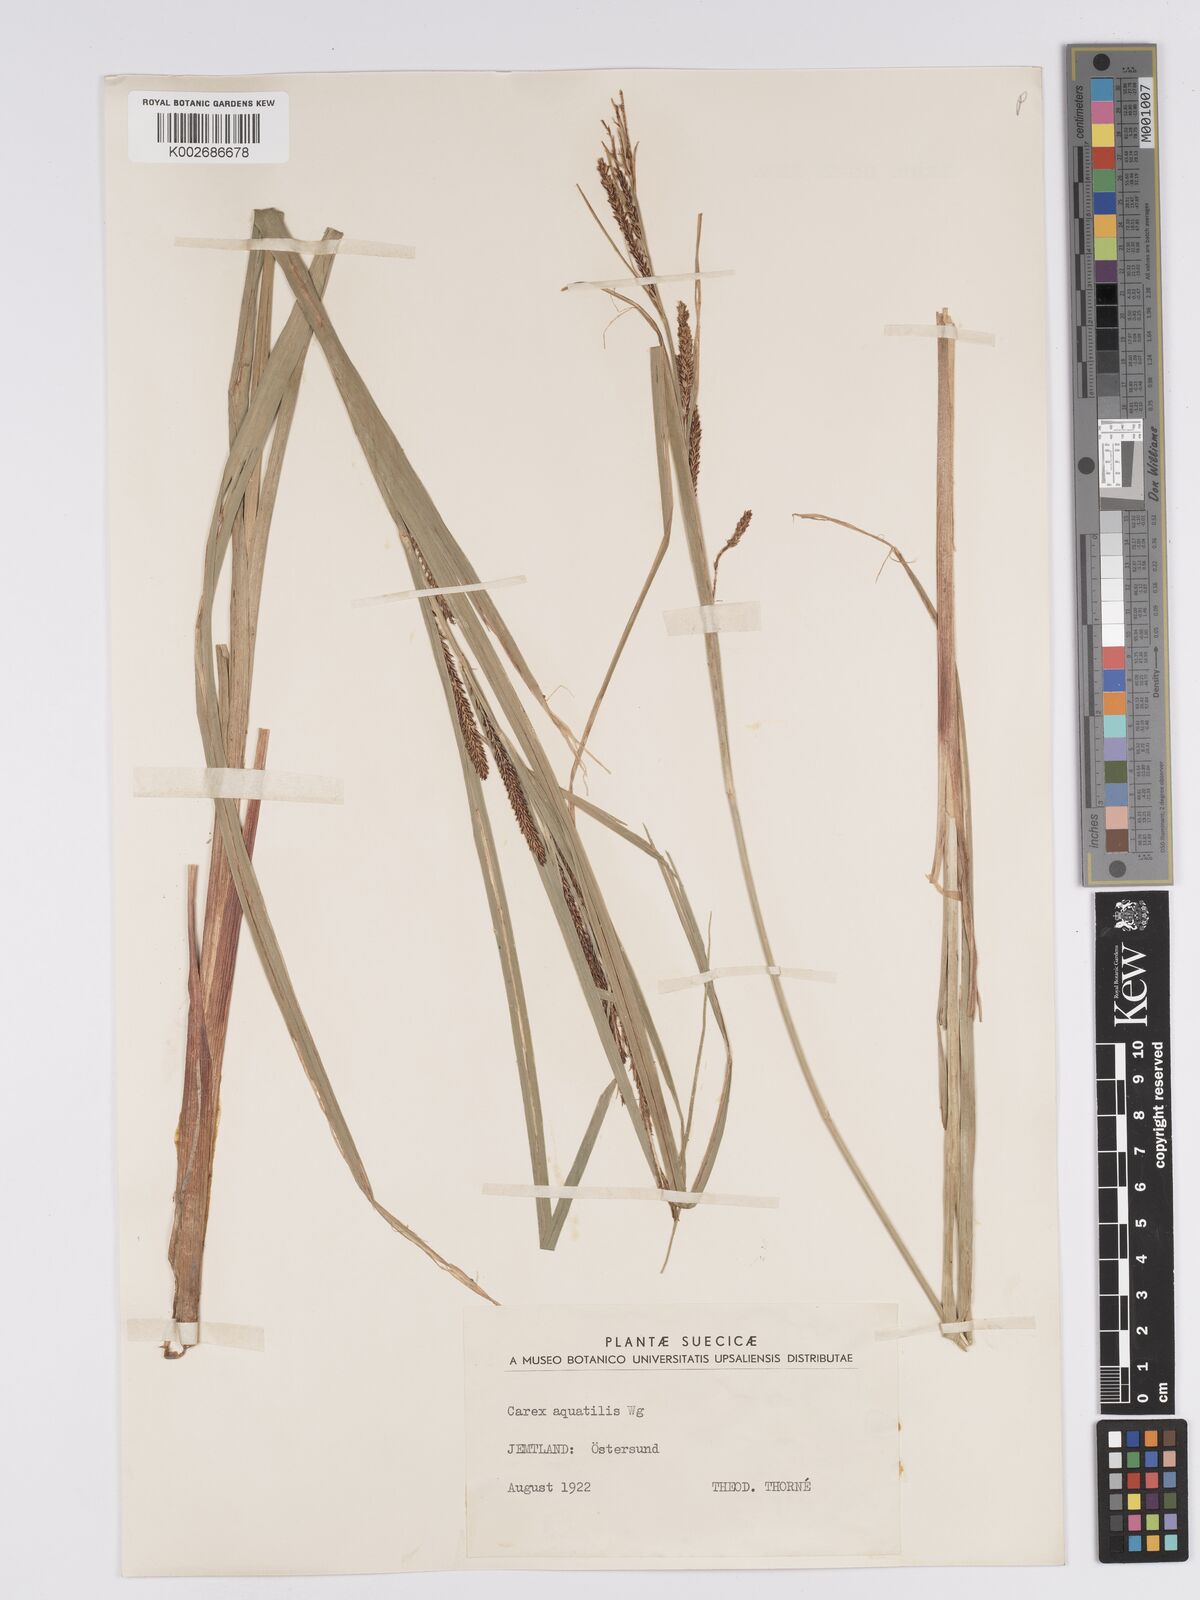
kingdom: Plantae
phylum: Tracheophyta
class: Liliopsida
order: Poales
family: Cyperaceae
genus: Carex
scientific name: Carex aquatilis
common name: Water sedge
